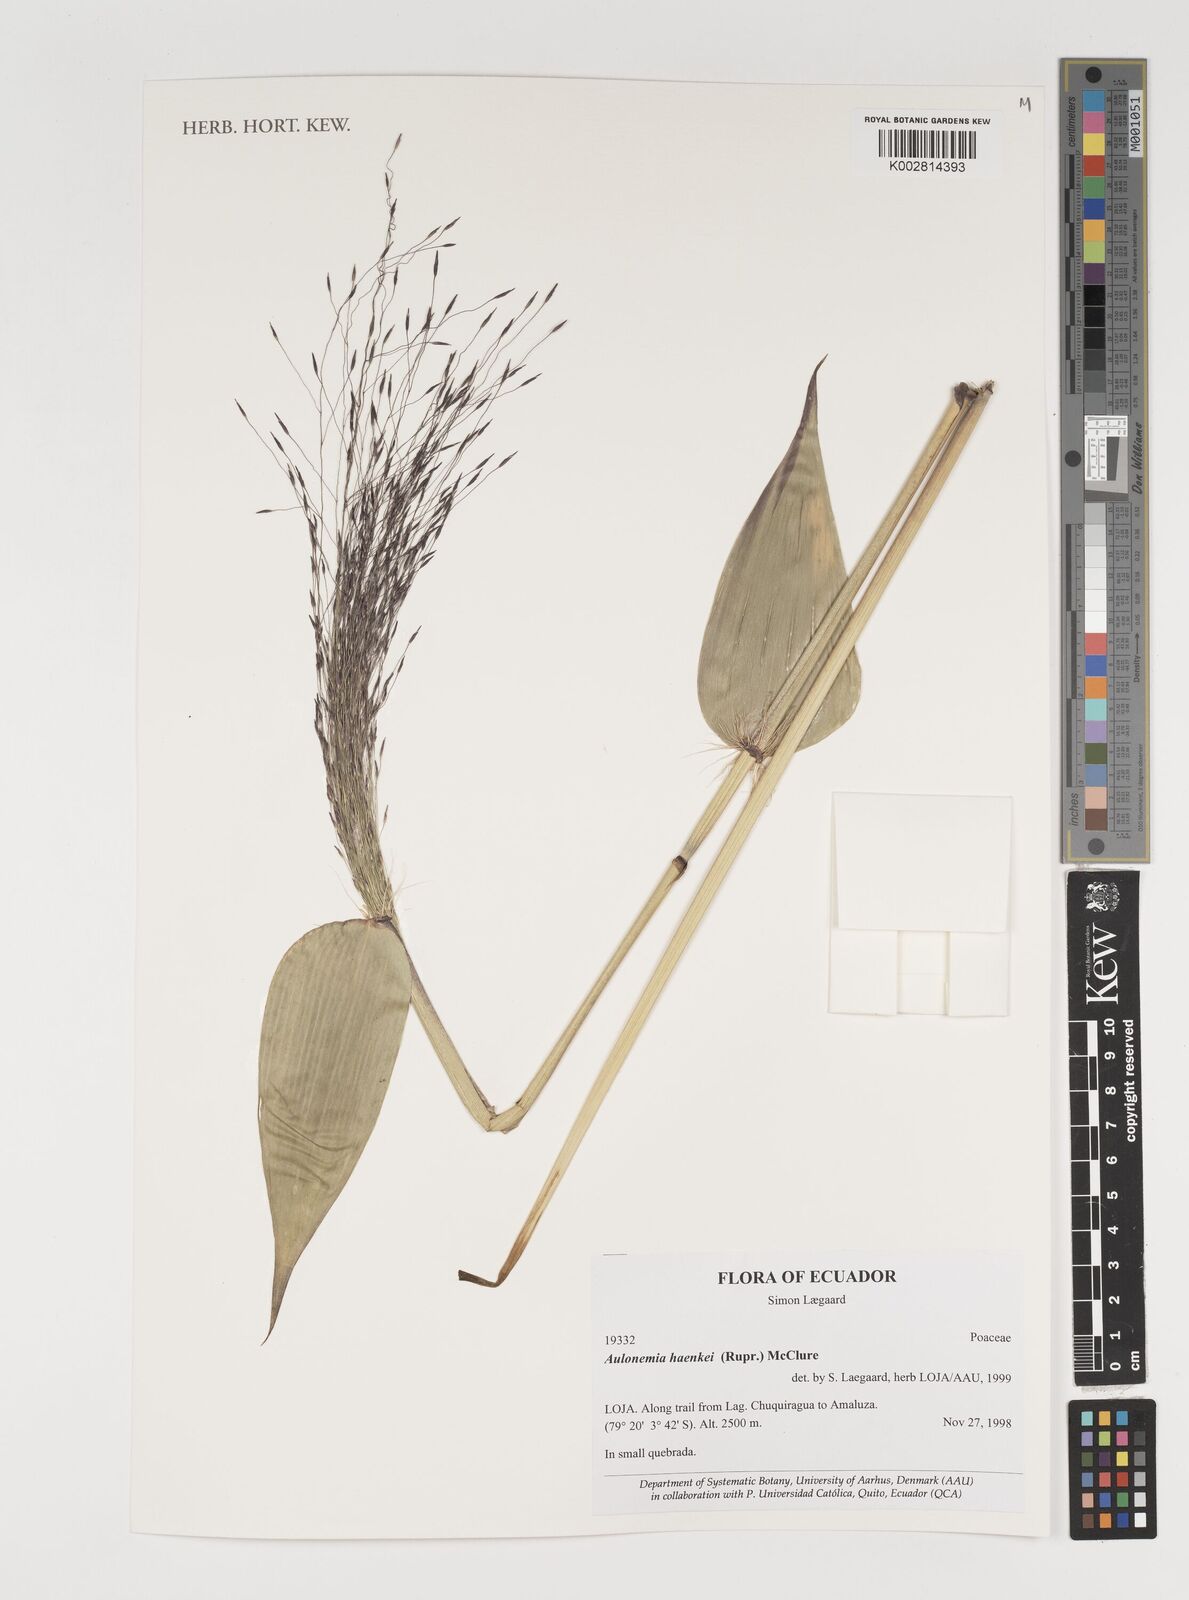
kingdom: Plantae
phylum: Tracheophyta
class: Liliopsida
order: Poales
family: Poaceae
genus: Aulonemia
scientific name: Aulonemia haenkei
